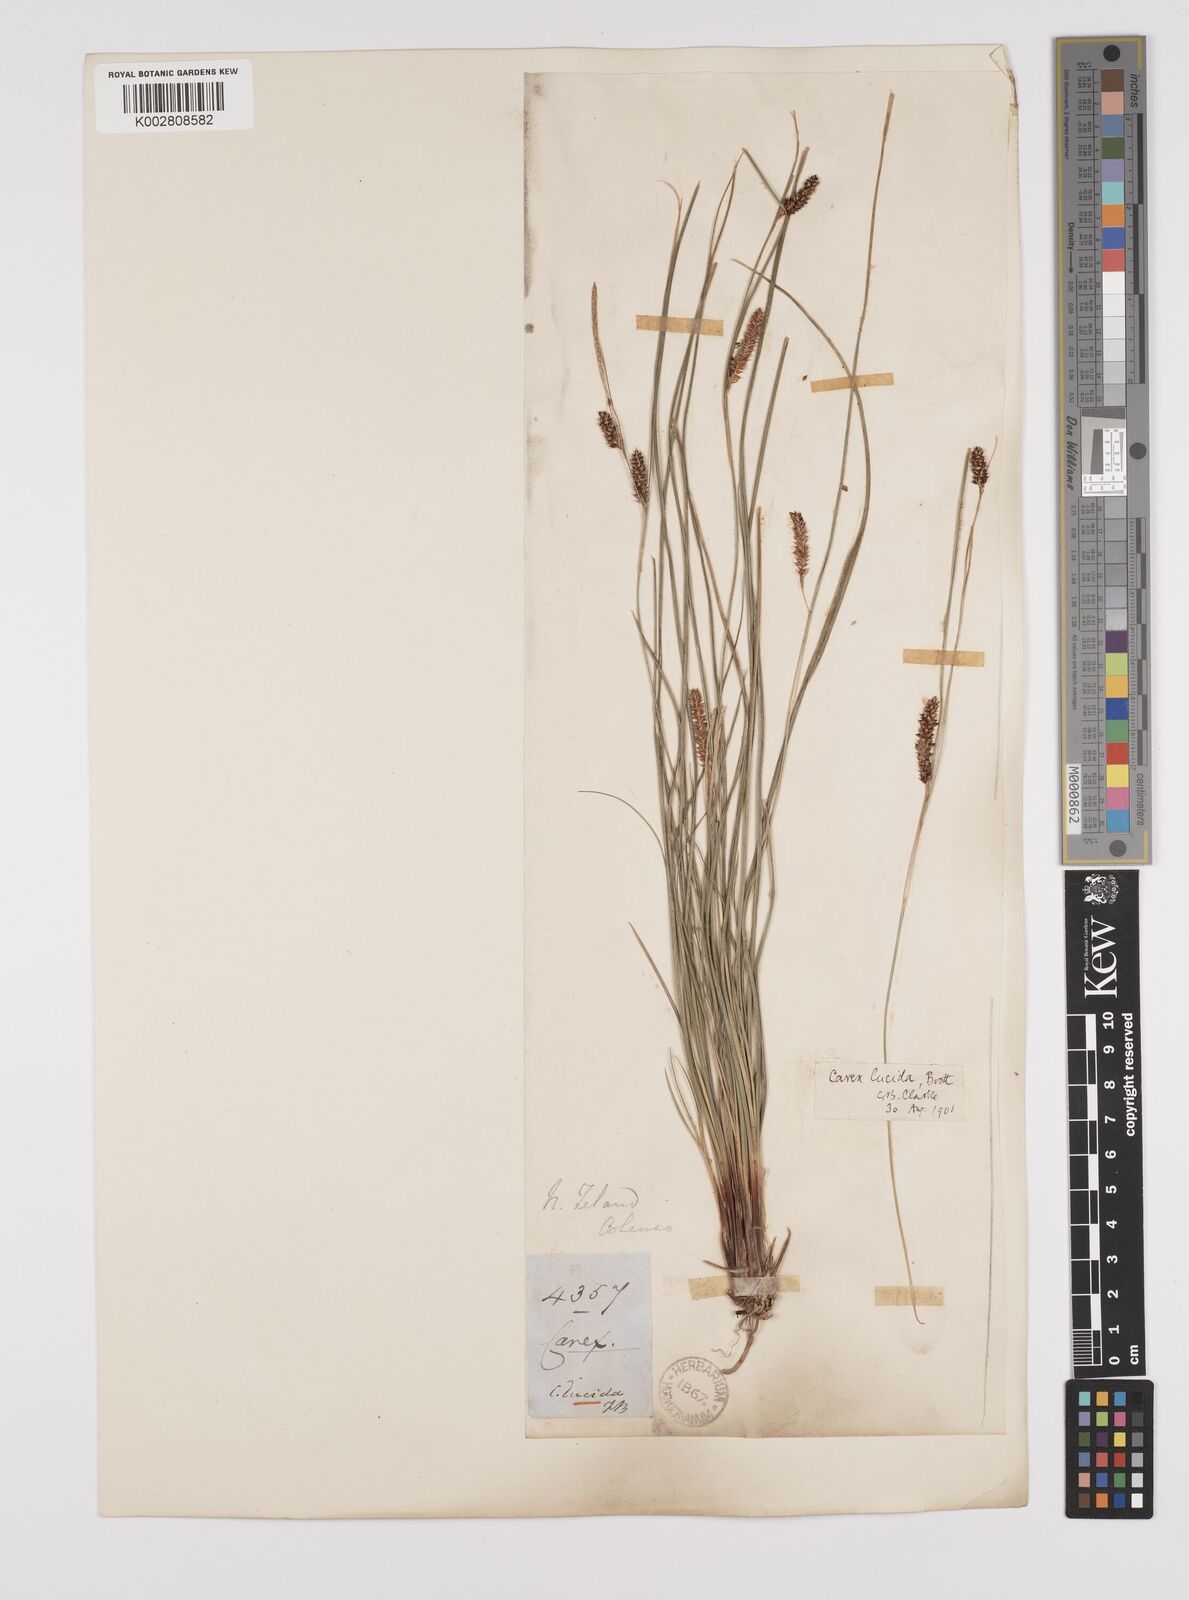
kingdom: Plantae
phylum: Tracheophyta
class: Liliopsida
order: Poales
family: Cyperaceae
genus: Carex
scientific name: Carex flagellifera
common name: Glen murray tussock
